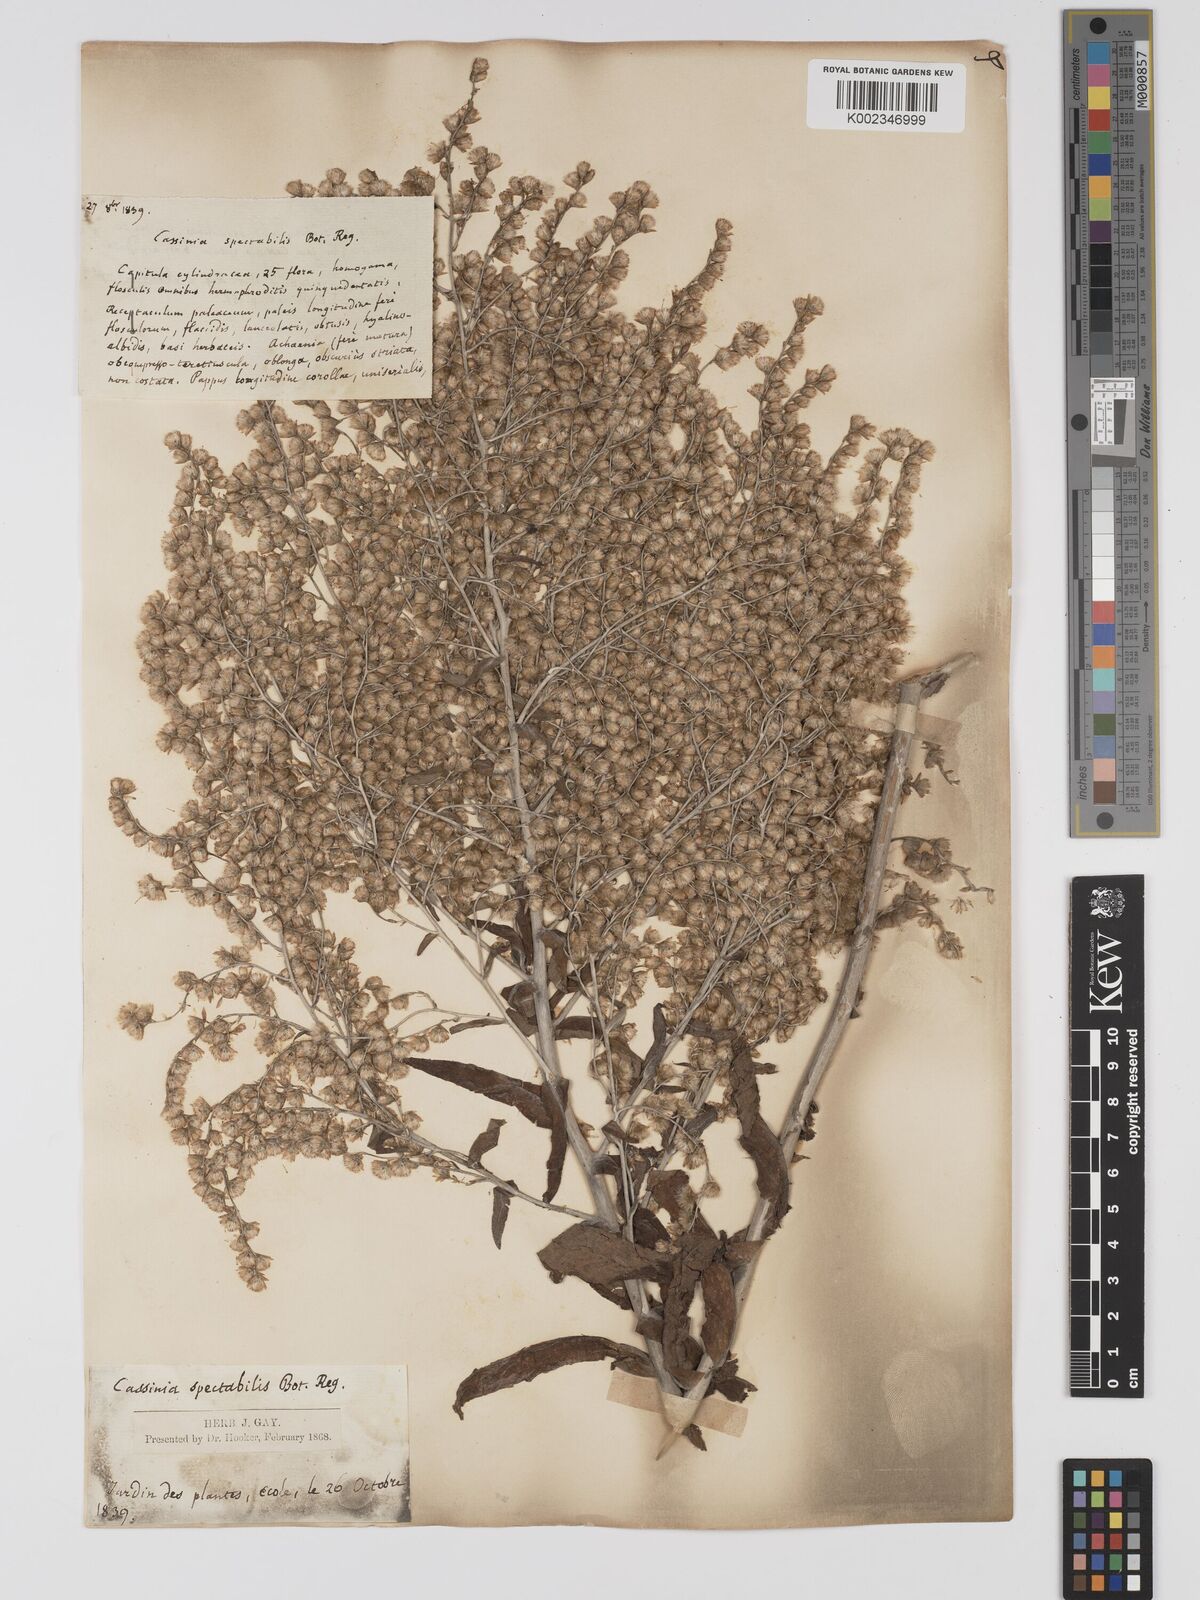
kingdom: Plantae
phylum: Tracheophyta
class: Magnoliopsida
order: Asterales
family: Asteraceae
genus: Apalochlamys
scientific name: Apalochlamys spectabilis
